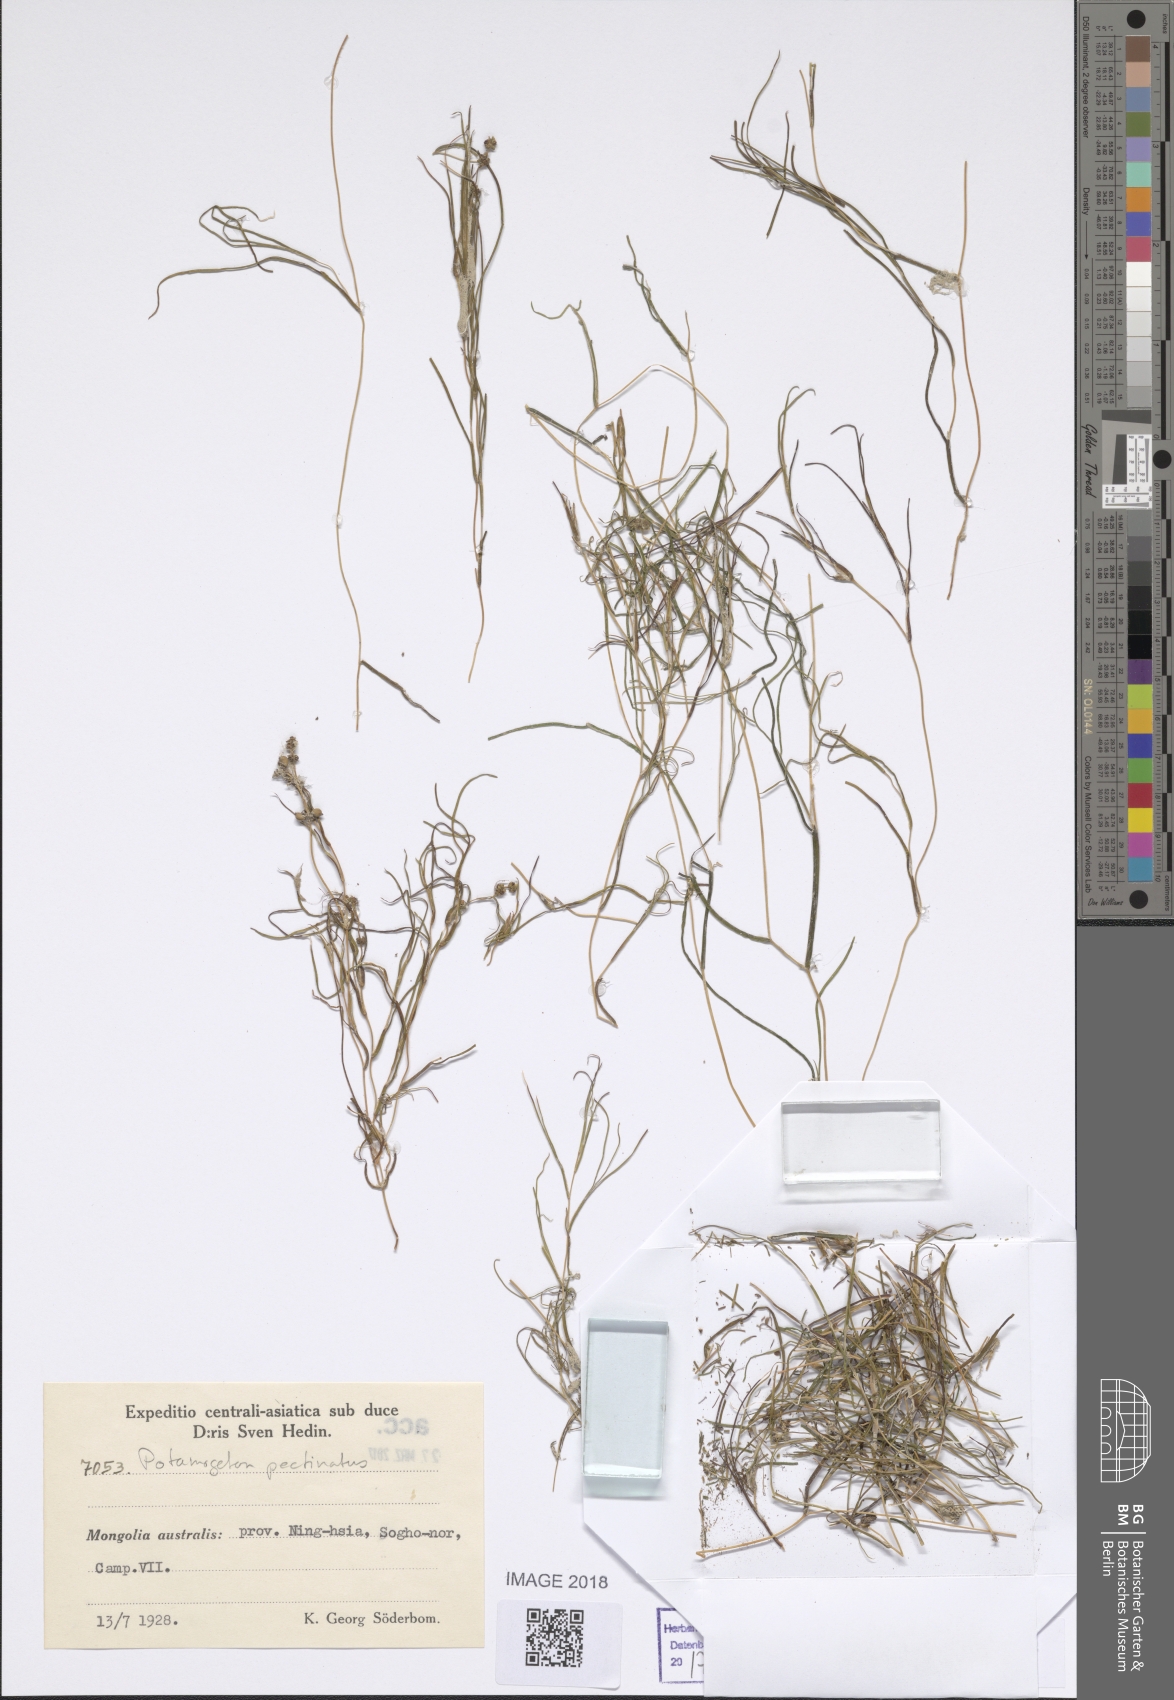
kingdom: Plantae
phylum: Tracheophyta
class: Liliopsida
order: Alismatales
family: Potamogetonaceae
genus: Stuckenia
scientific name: Stuckenia pectinata
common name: Sago pondweed
